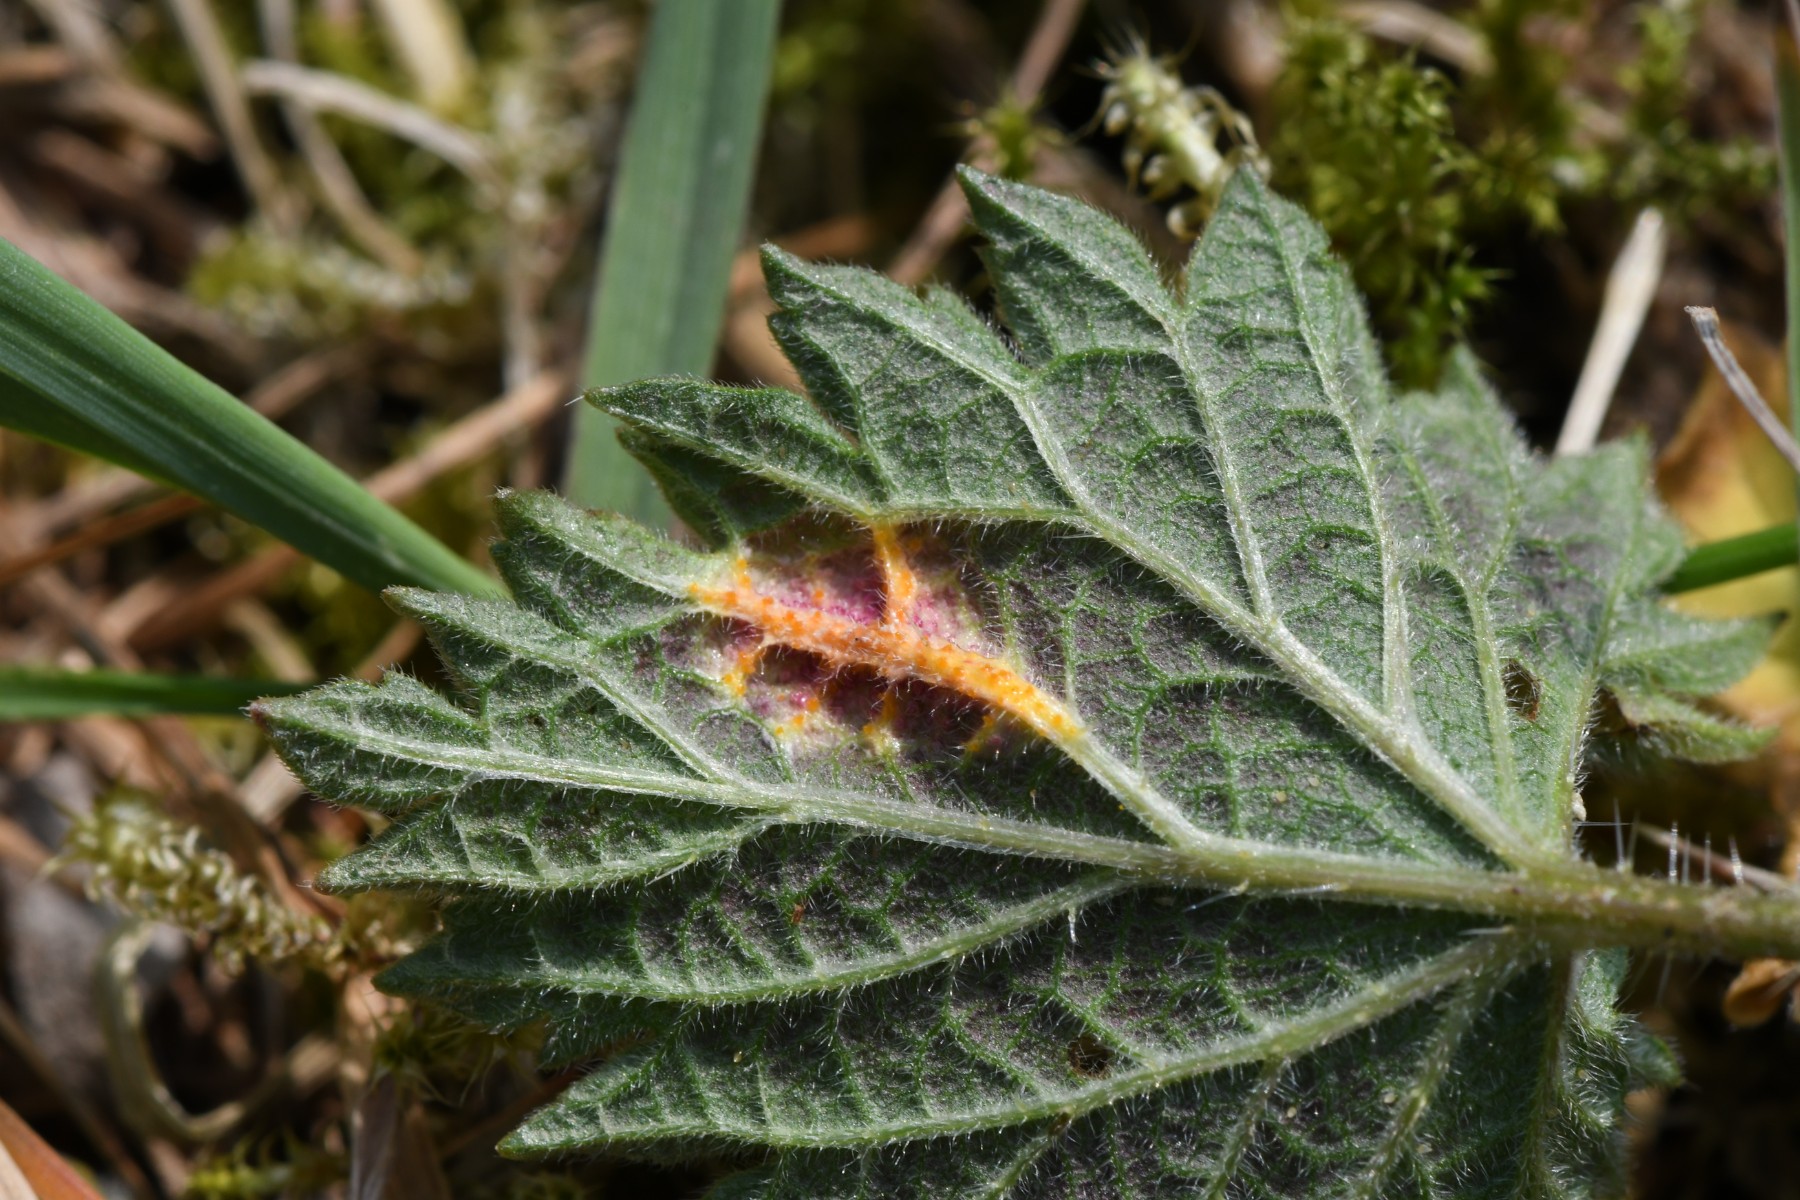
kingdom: Fungi
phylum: Basidiomycota
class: Pucciniomycetes
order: Pucciniales
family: Pucciniaceae
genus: Puccinia
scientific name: Puccinia urticata
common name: nældegalle-tvecellerust
